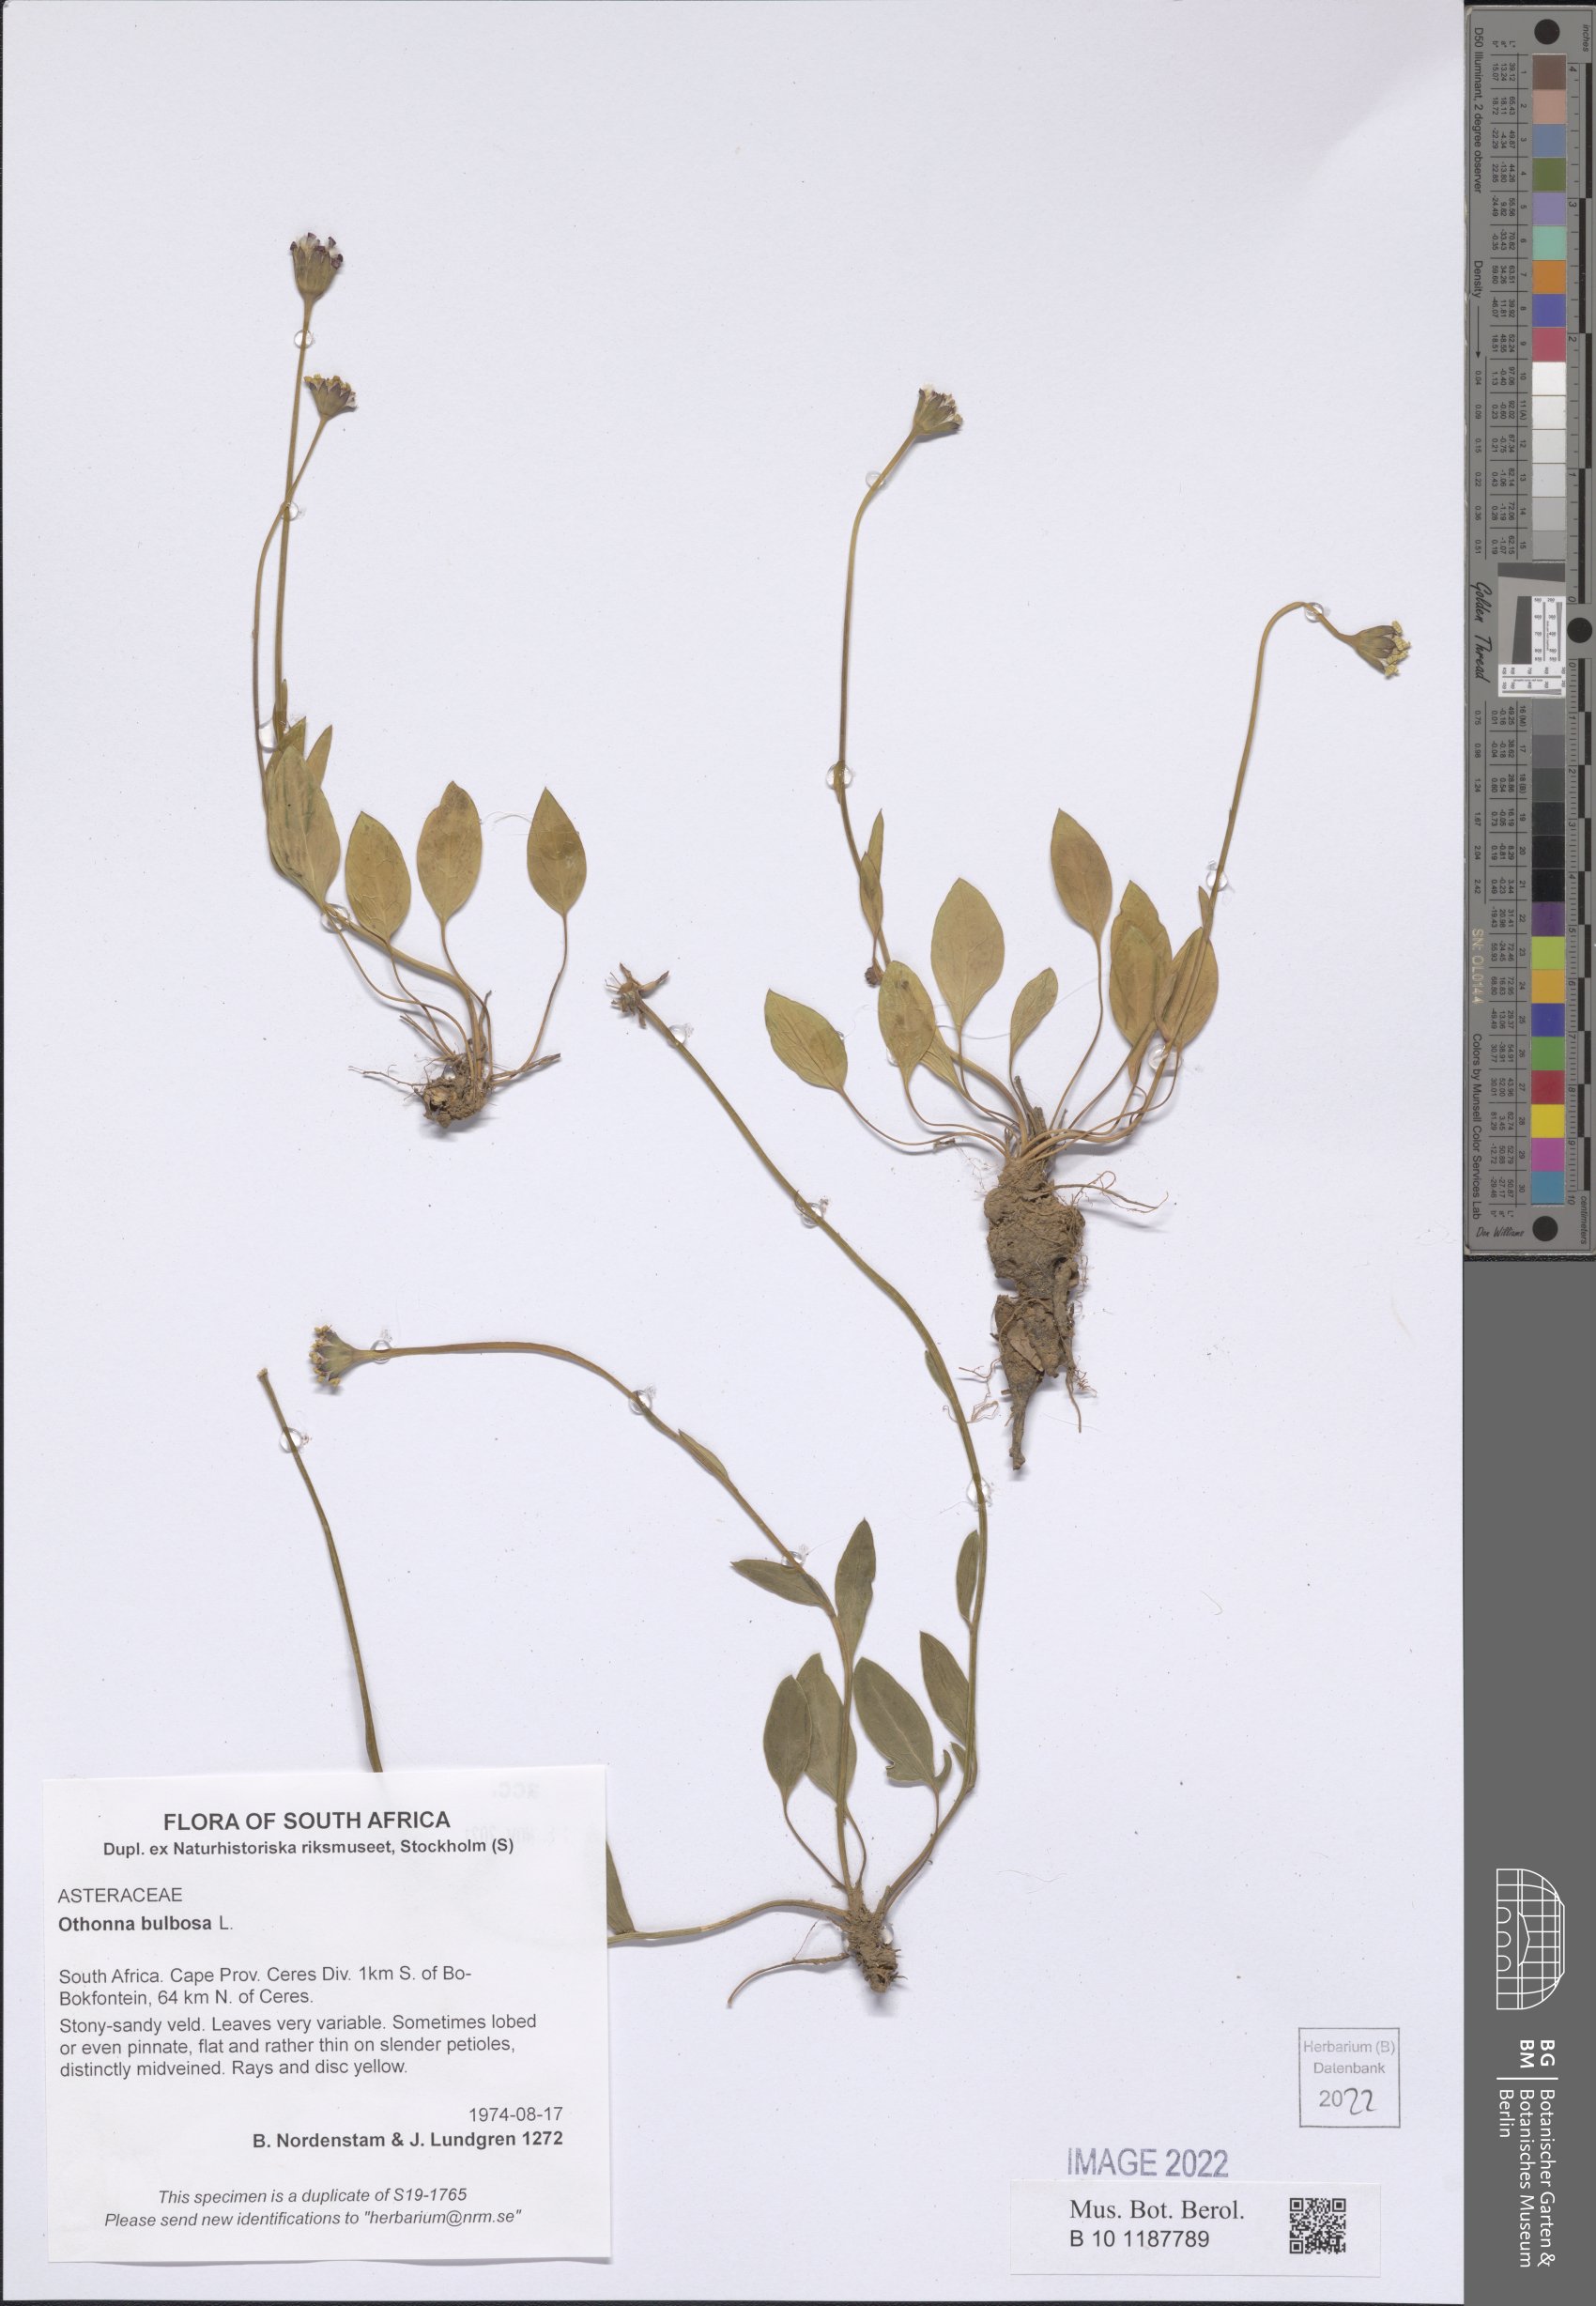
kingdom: Plantae
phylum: Tracheophyta
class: Magnoliopsida
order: Asterales
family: Asteraceae
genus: Othonna
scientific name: Othonna bulbosa
